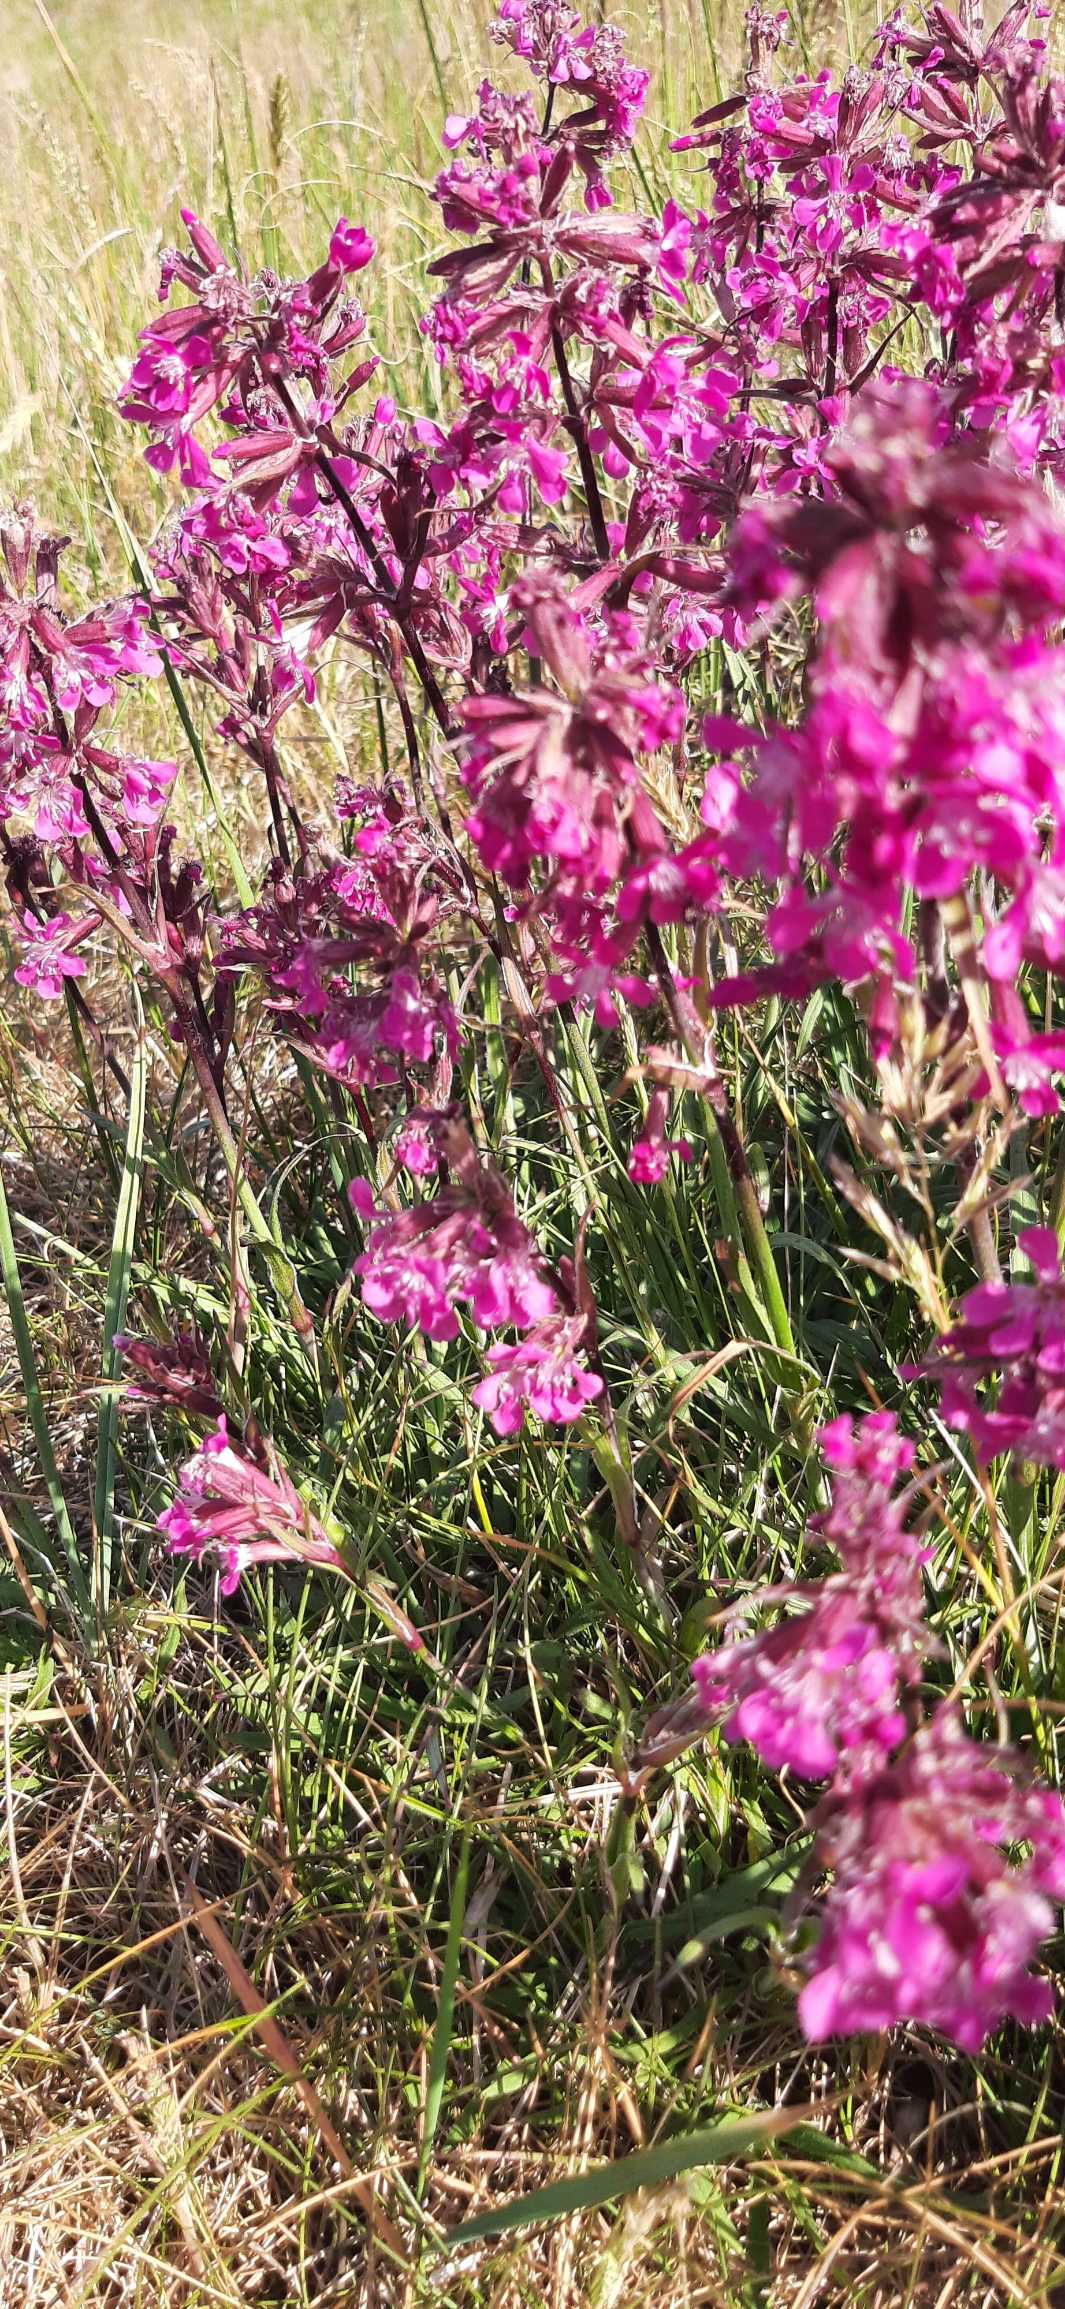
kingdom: Plantae
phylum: Tracheophyta
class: Magnoliopsida
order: Caryophyllales
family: Caryophyllaceae
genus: Viscaria
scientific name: Viscaria vulgaris
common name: Tjærenellike
